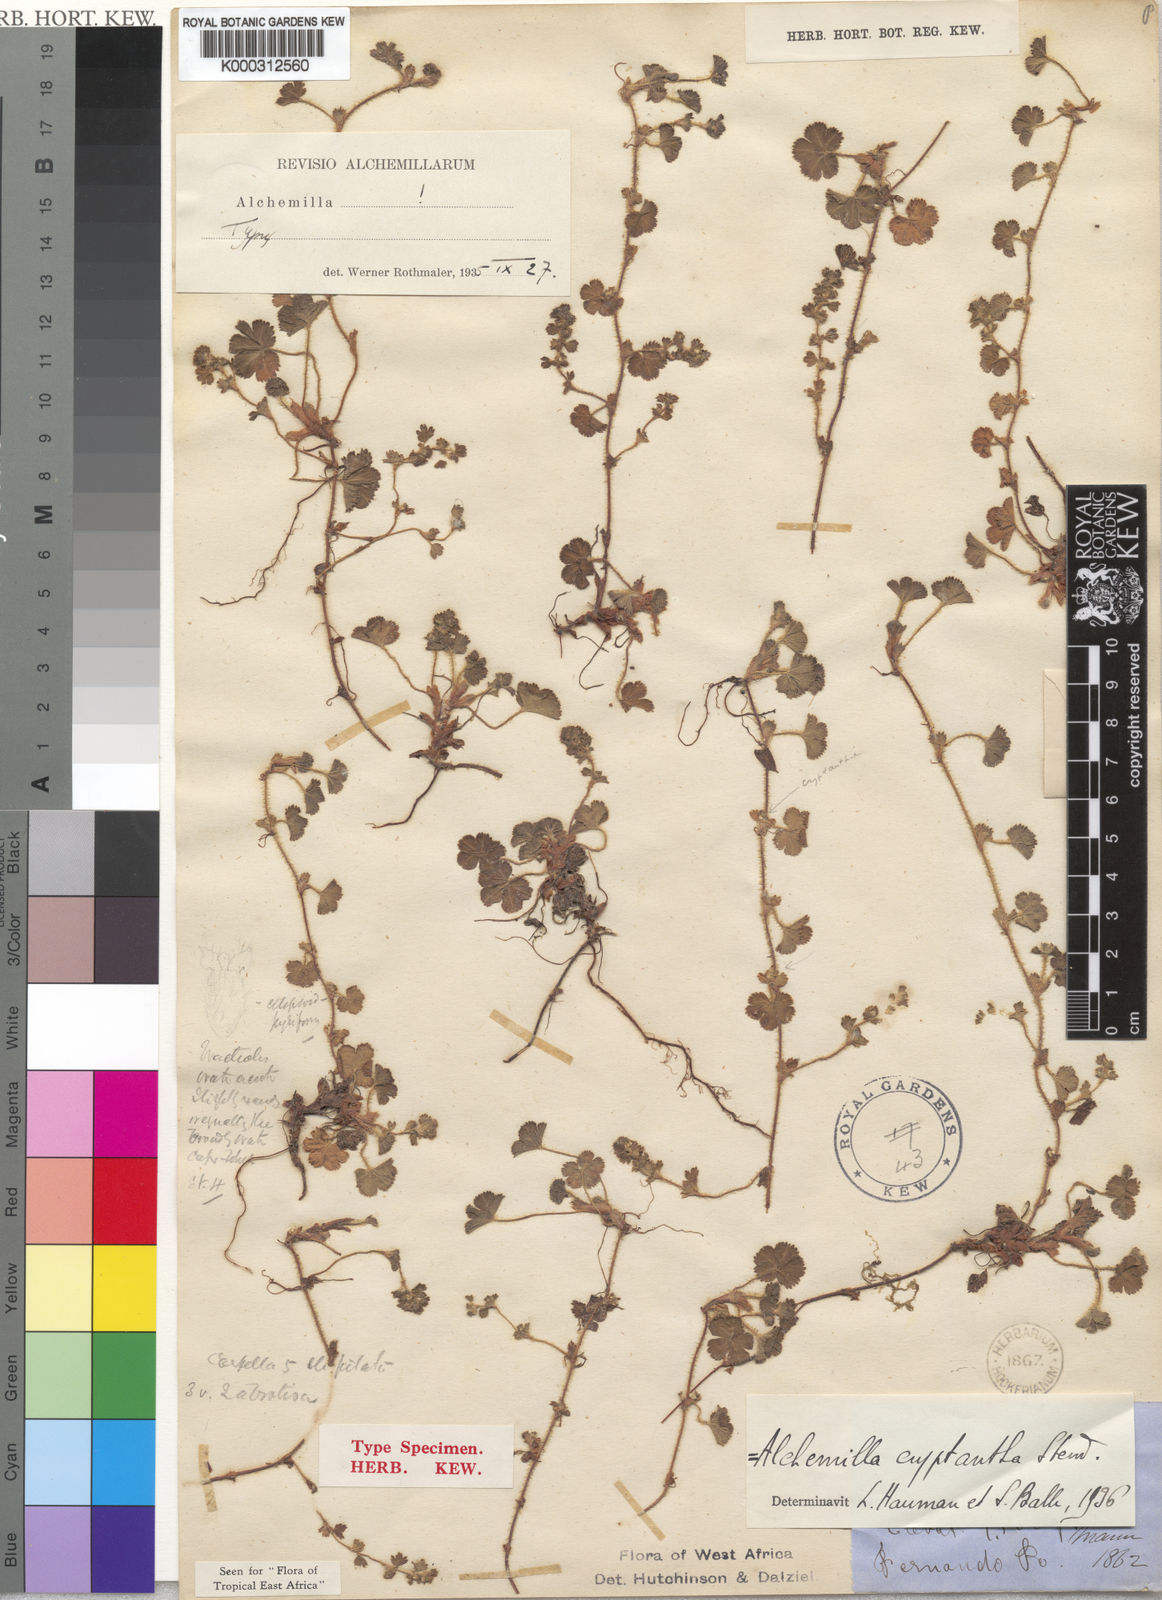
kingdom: Plantae
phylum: Tracheophyta
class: Magnoliopsida
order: Rosales
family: Rosaceae
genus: Alchemilla
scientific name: Alchemilla cryptantha
